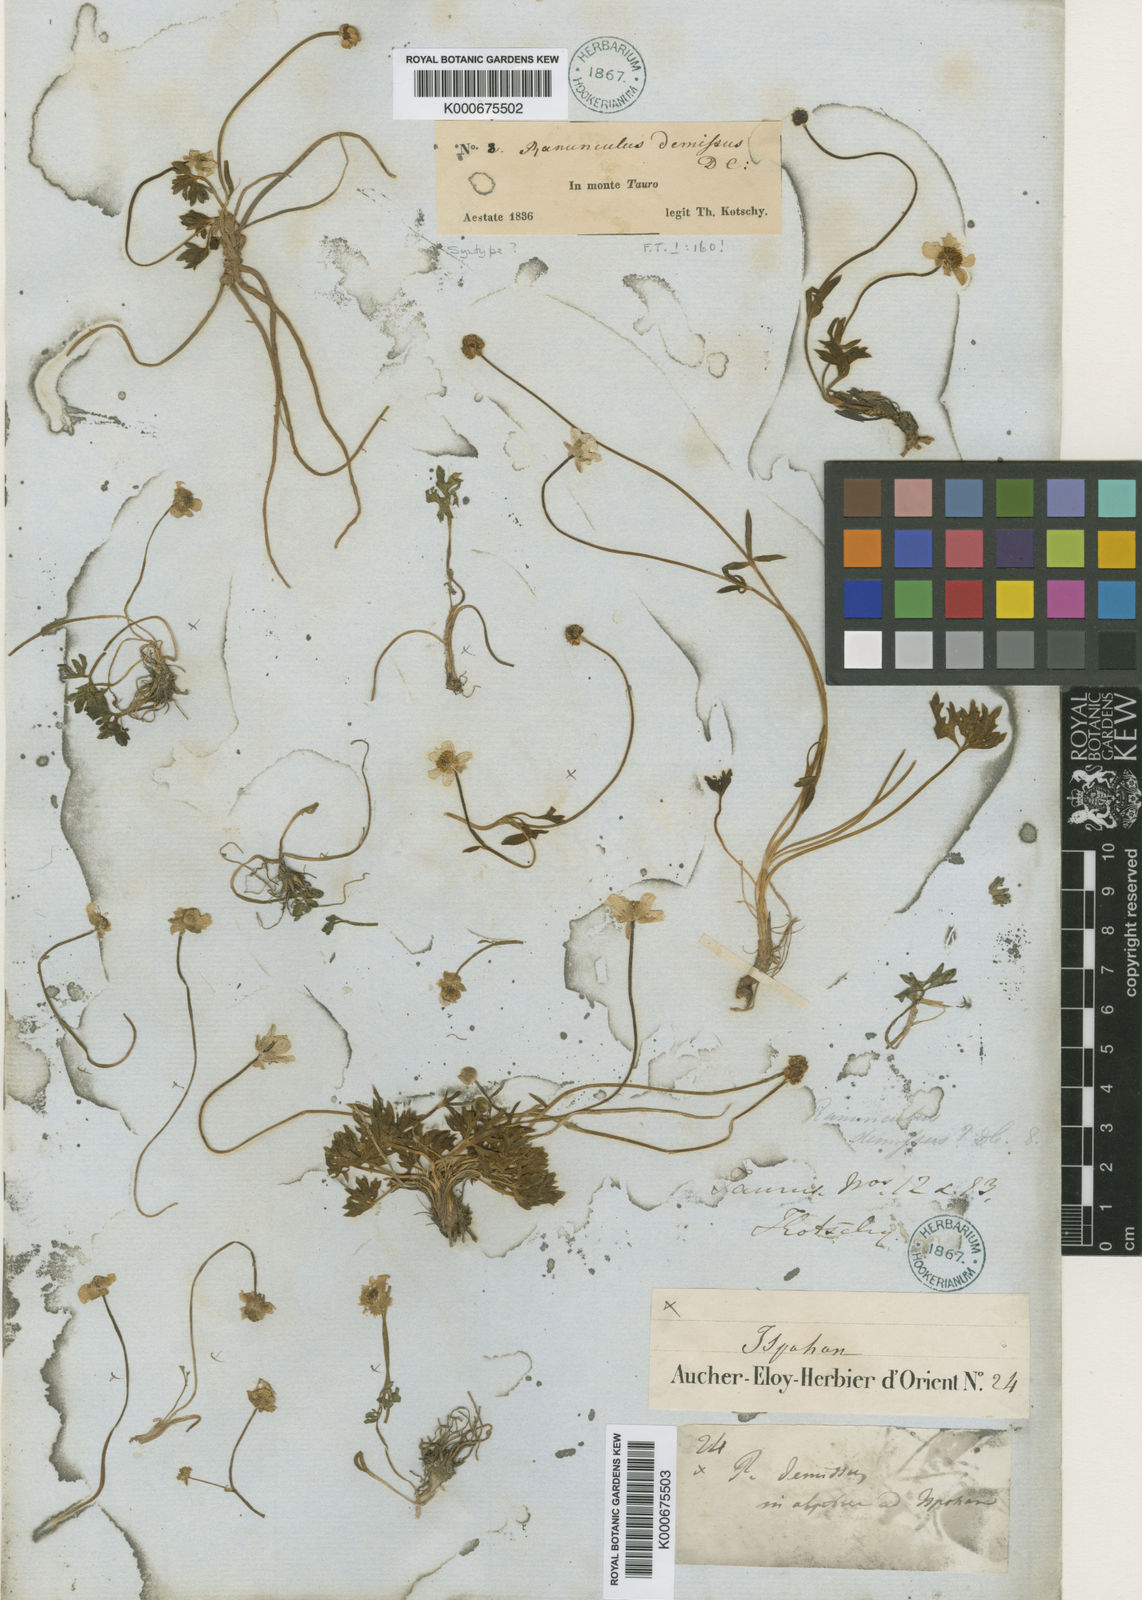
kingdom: Plantae
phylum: Tracheophyta
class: Magnoliopsida
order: Ranunculales
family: Ranunculaceae
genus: Ranunculus
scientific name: Ranunculus demissus
